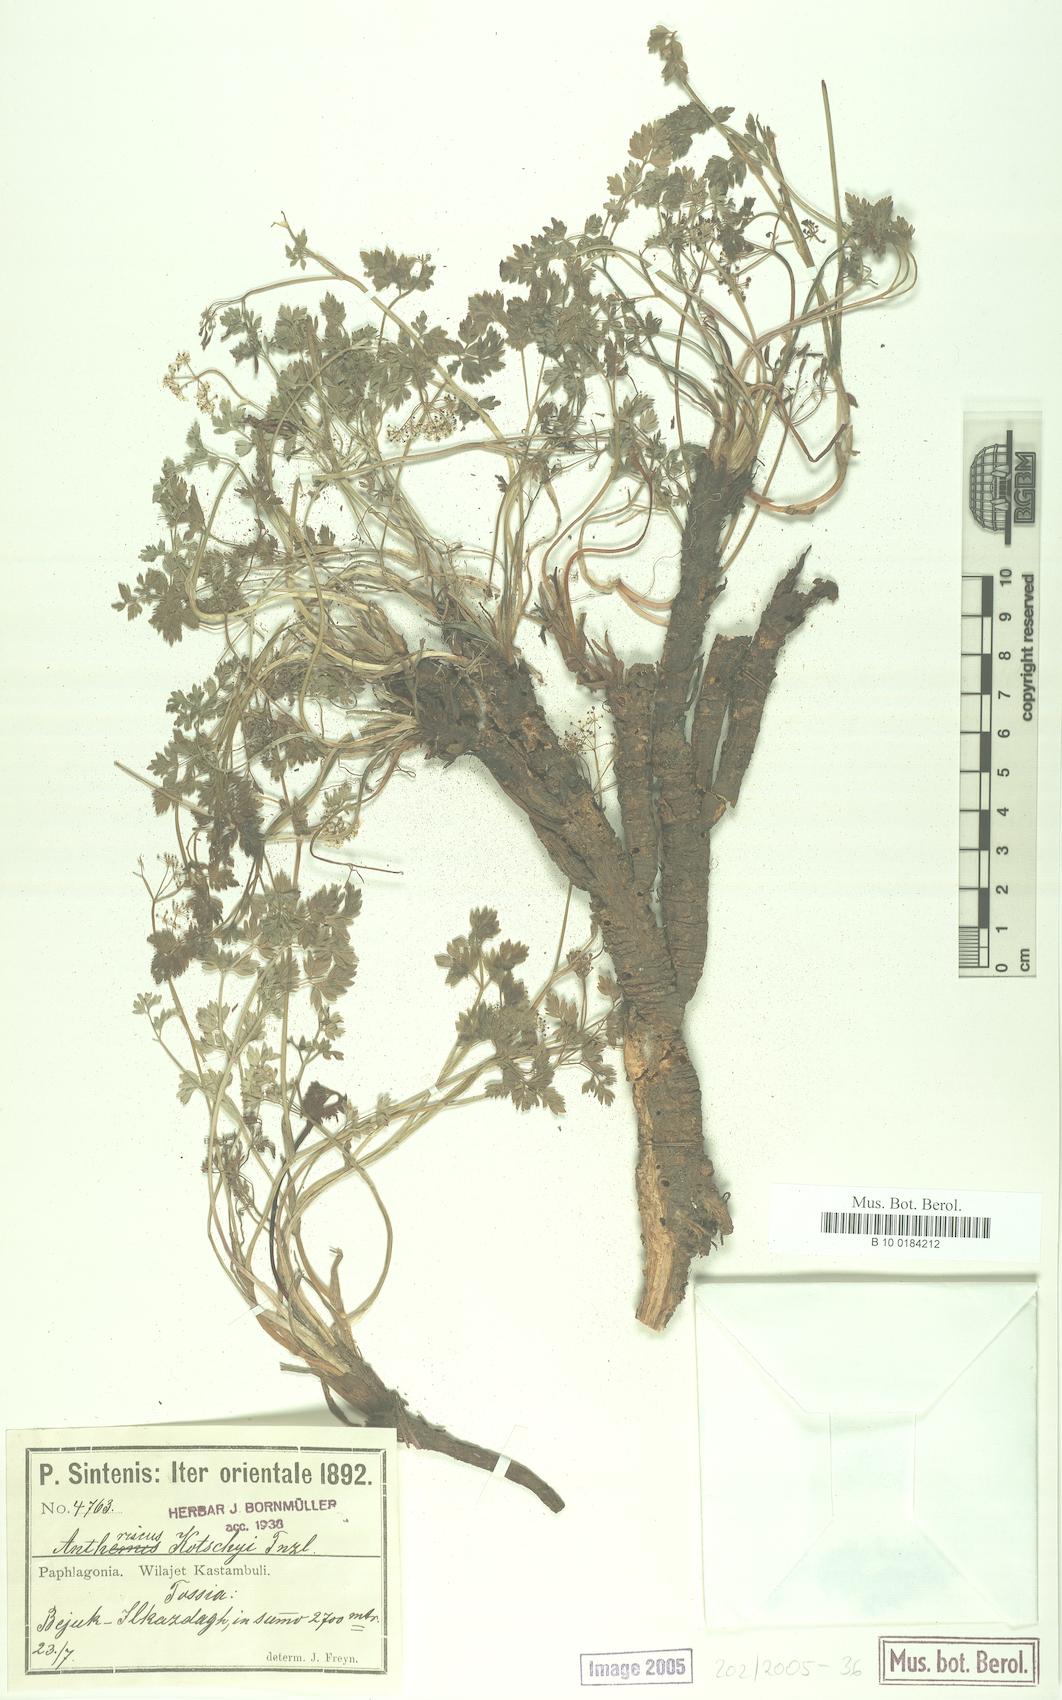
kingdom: Plantae
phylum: Tracheophyta
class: Magnoliopsida
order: Apiales
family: Apiaceae
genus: Anthriscus
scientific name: Anthriscus kotschyi
